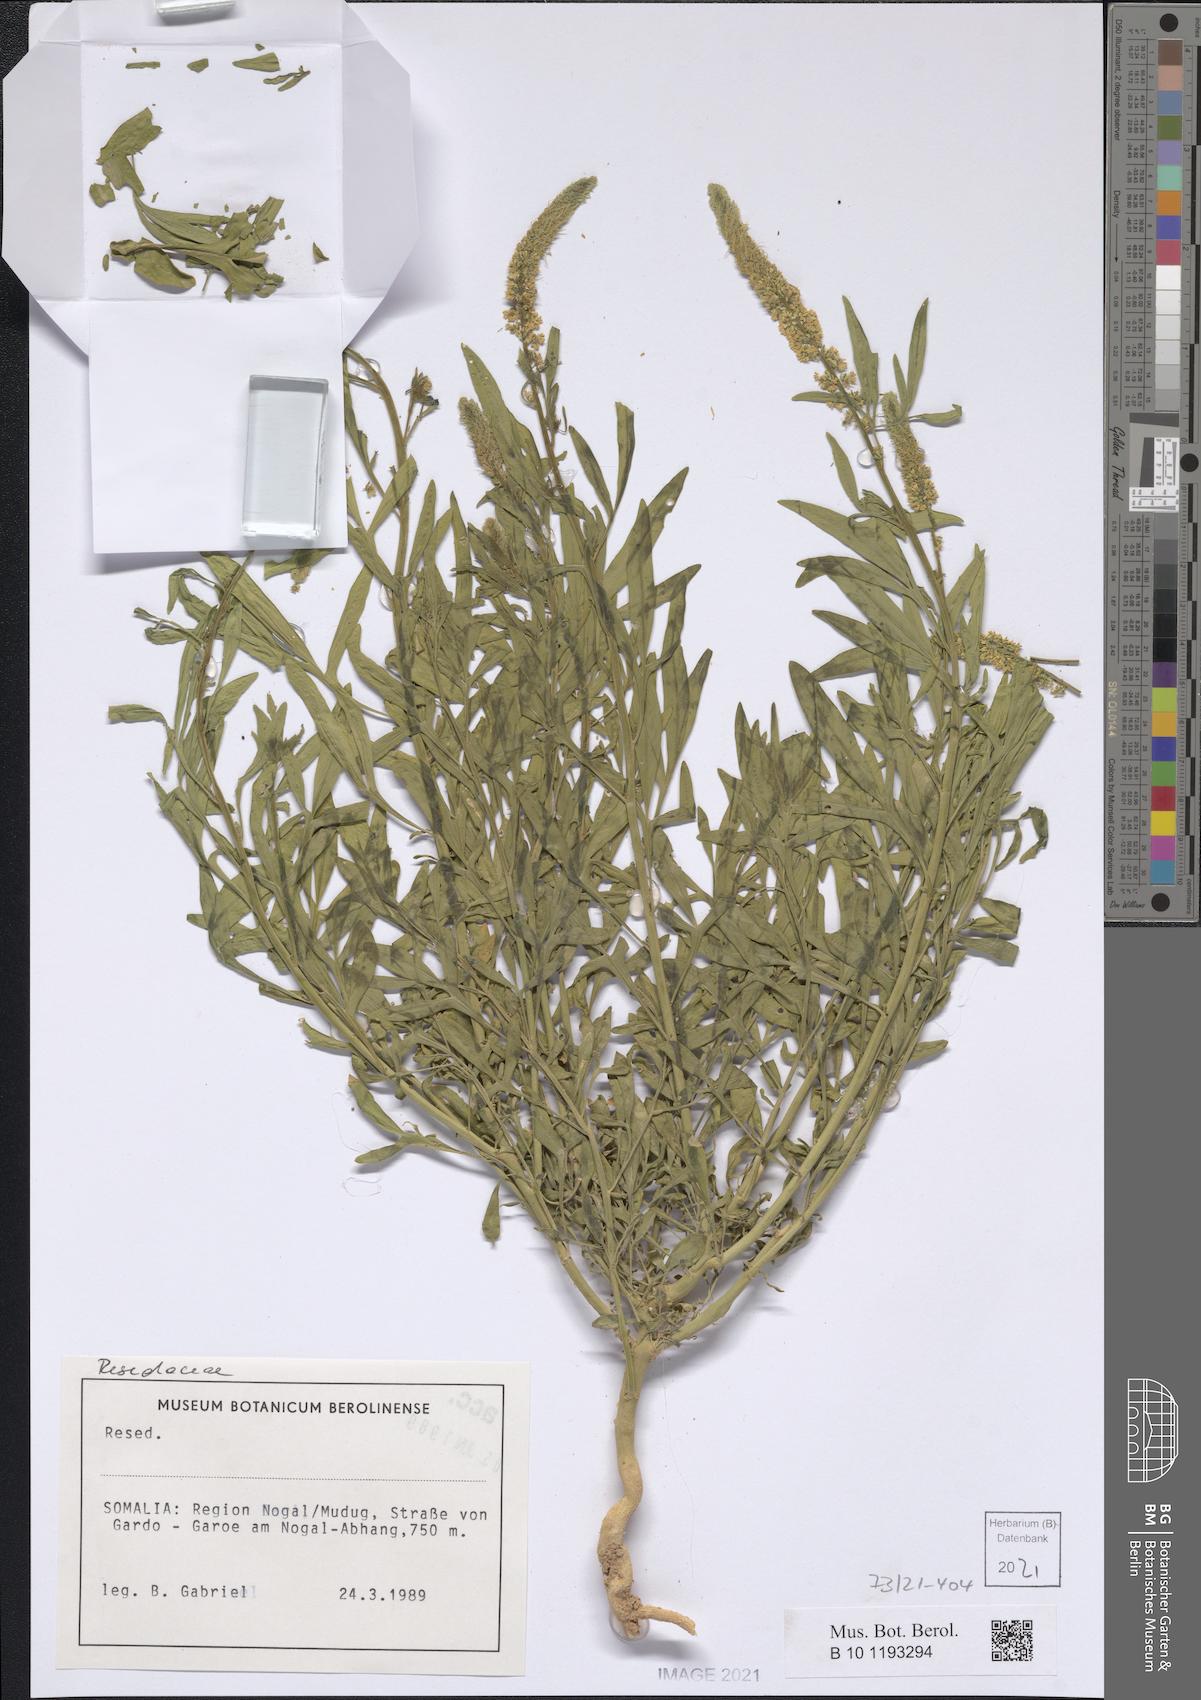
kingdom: Plantae
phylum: Tracheophyta
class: Magnoliopsida
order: Brassicales
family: Resedaceae
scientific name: Resedaceae
